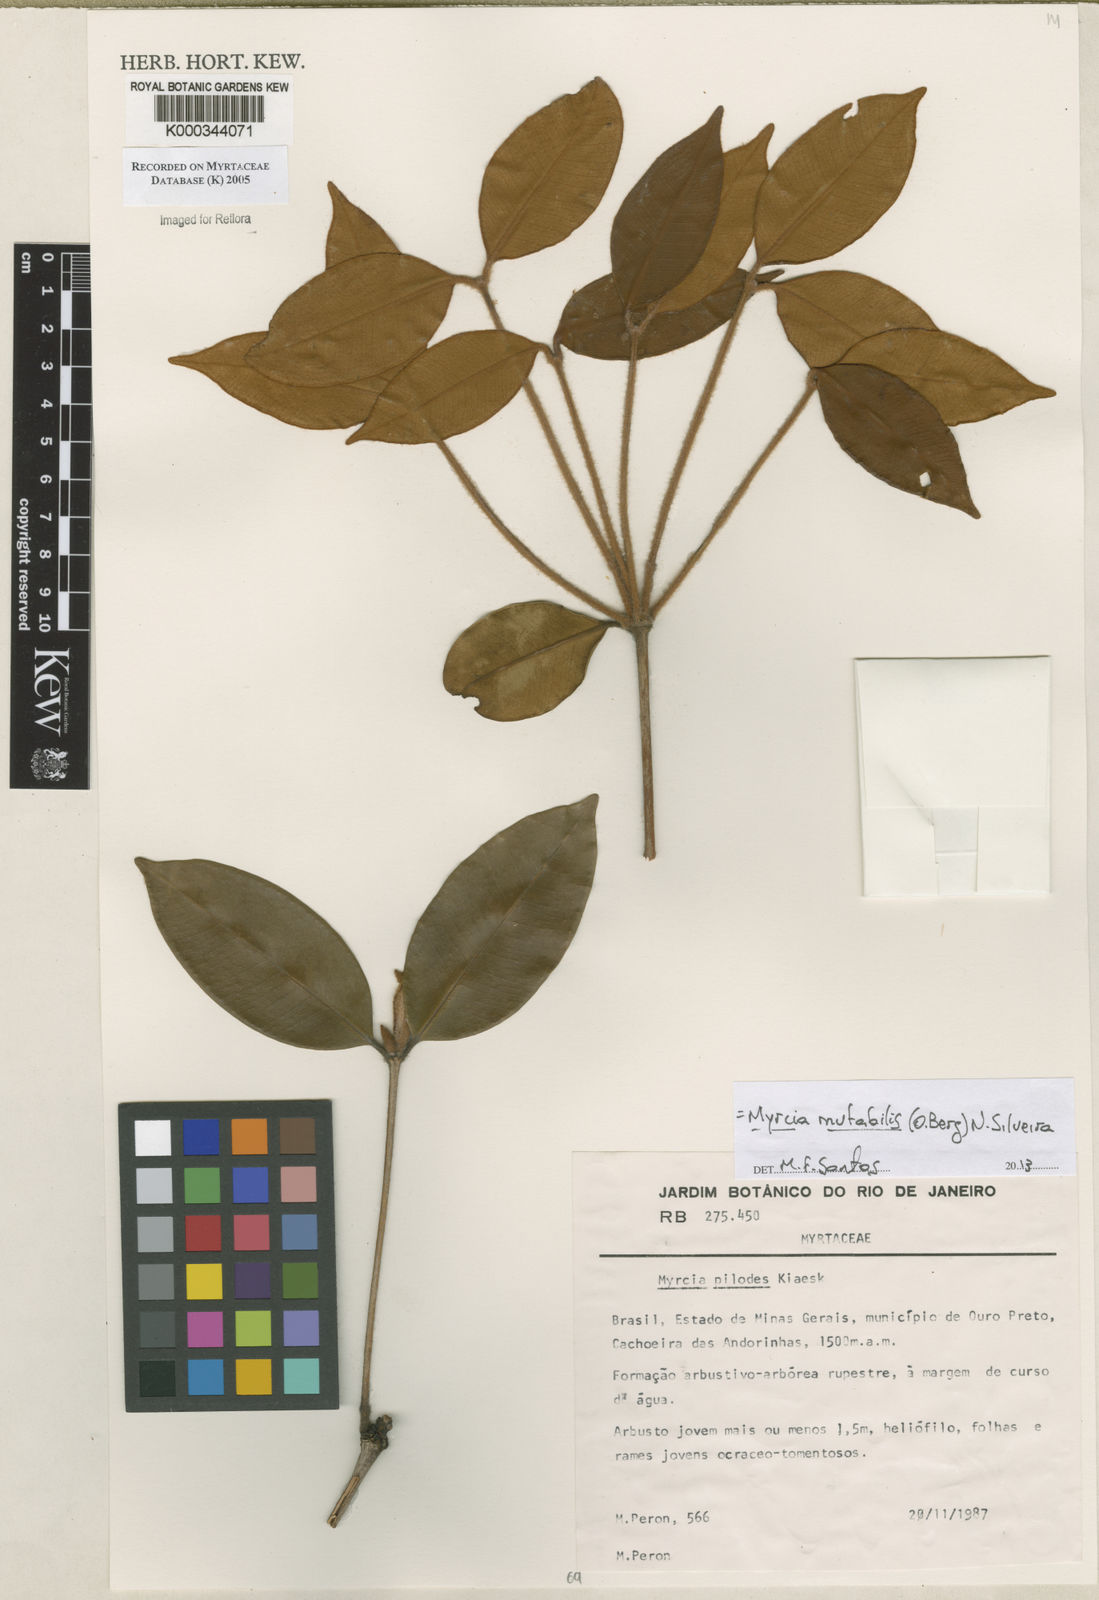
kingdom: Plantae
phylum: Tracheophyta
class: Magnoliopsida
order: Myrtales
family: Myrtaceae
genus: Myrcia
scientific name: Myrcia mutabilis
